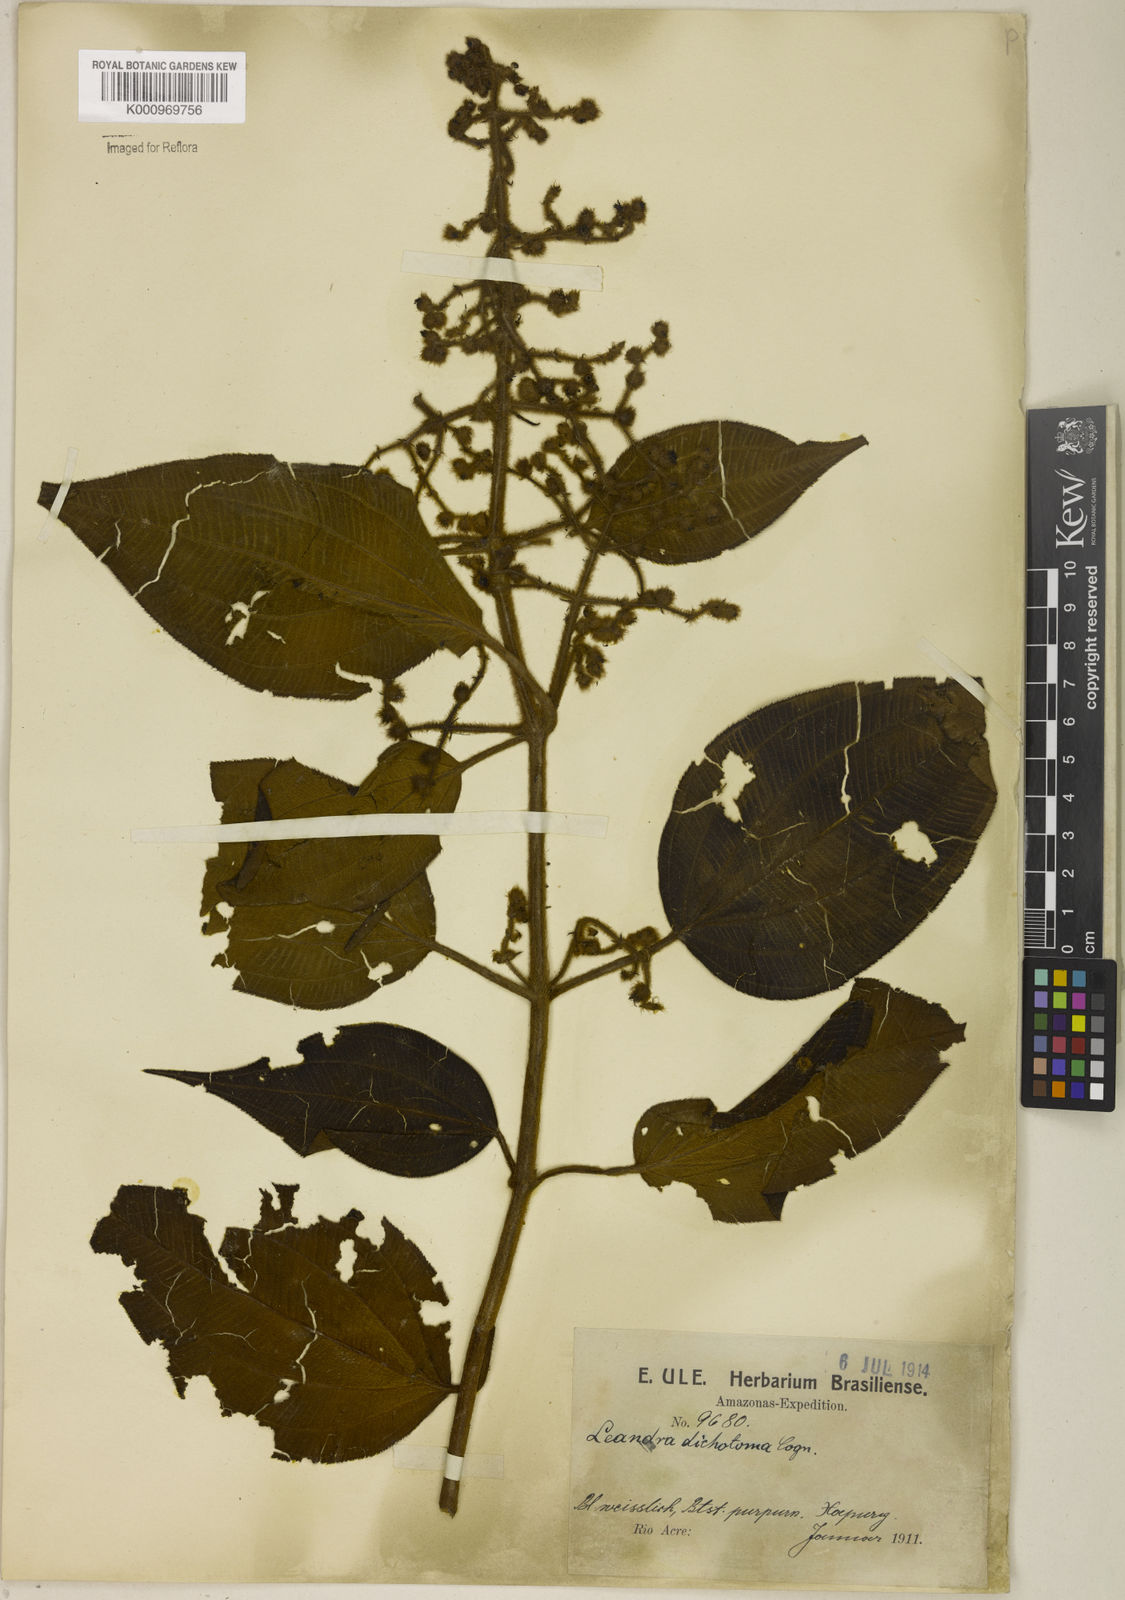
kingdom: Plantae
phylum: Tracheophyta
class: Magnoliopsida
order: Myrtales
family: Melastomataceae
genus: Miconia
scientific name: Miconia sulcicaulis
